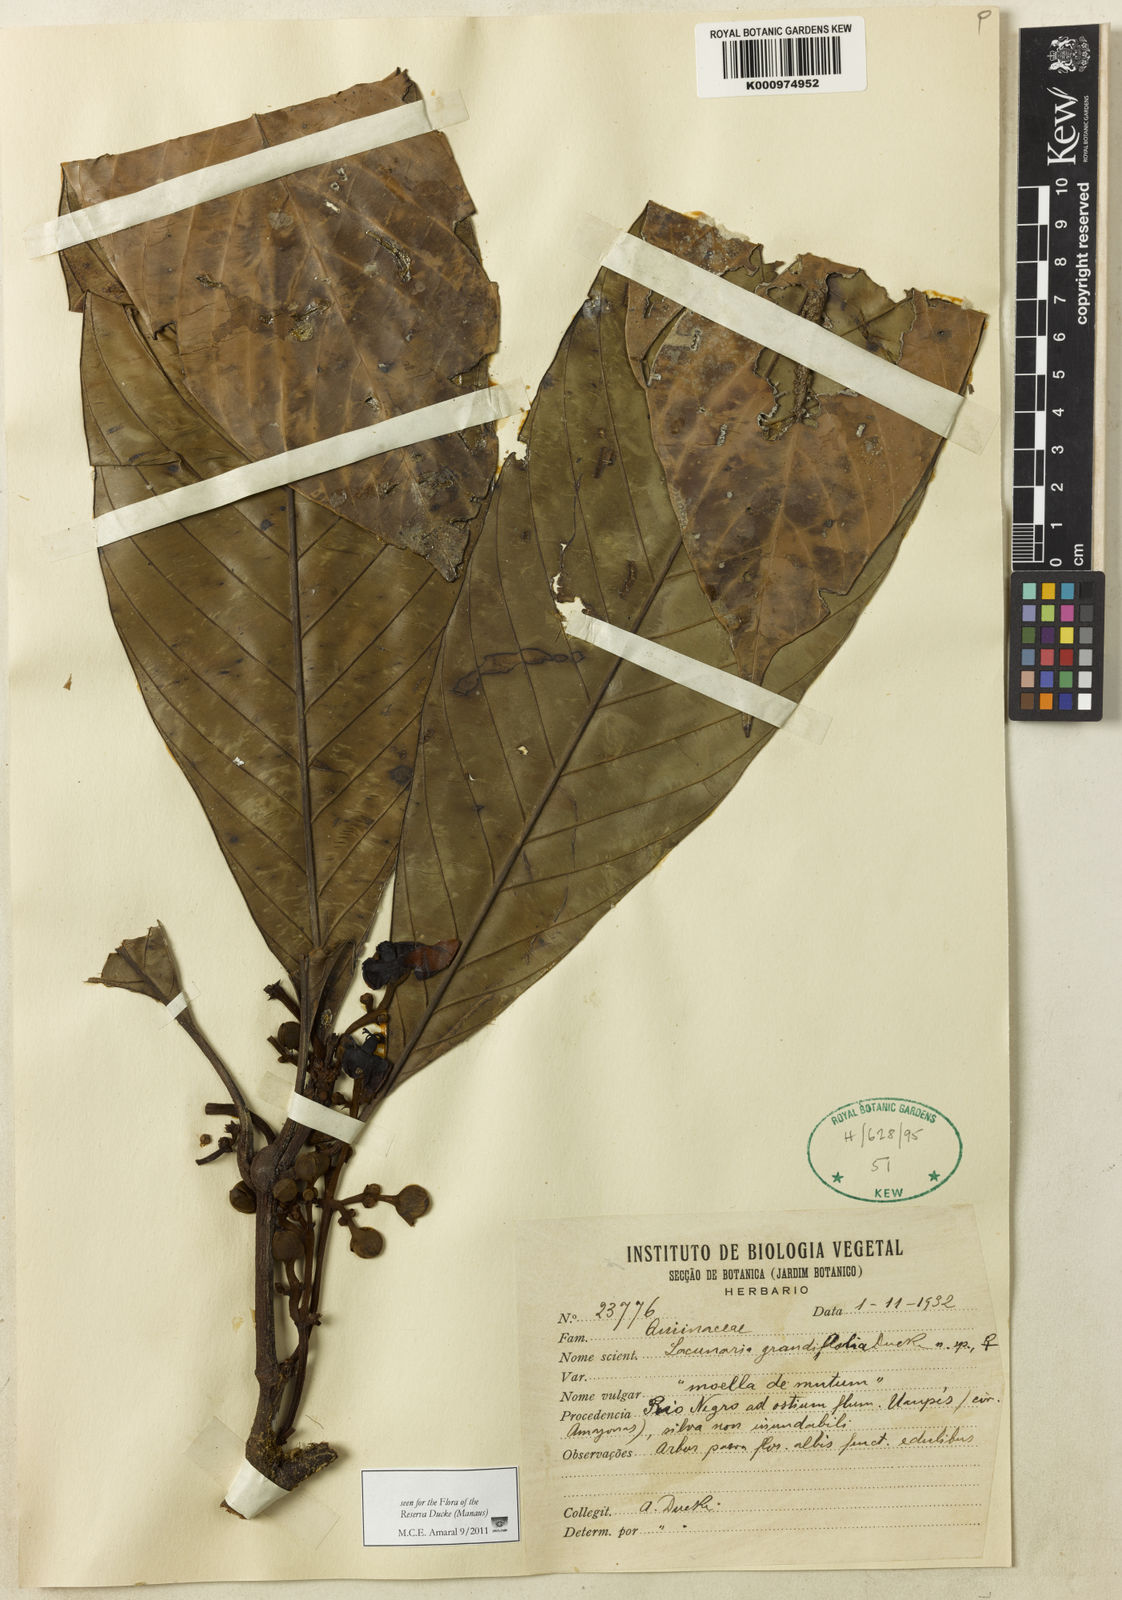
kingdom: Plantae
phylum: Tracheophyta
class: Magnoliopsida
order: Malpighiales
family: Quiinaceae
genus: Lacunaria
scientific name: Lacunaria grandifolia
